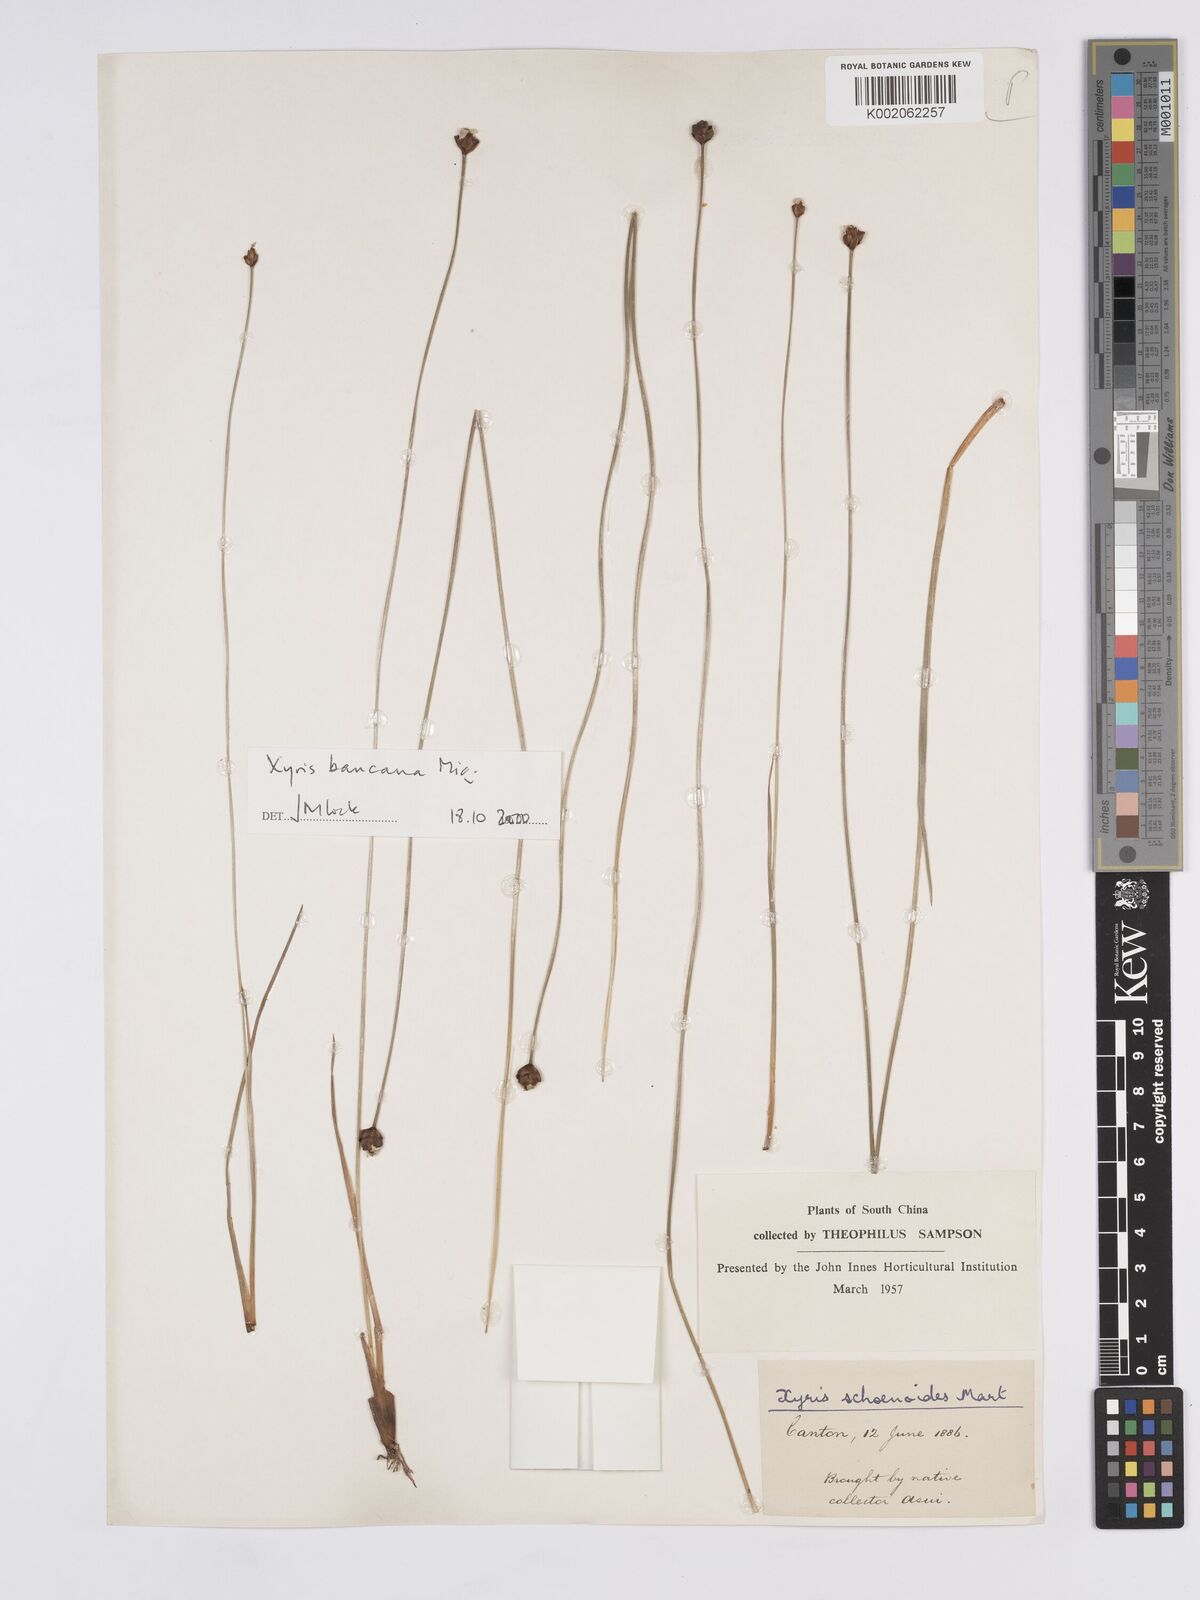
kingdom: Plantae
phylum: Tracheophyta
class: Liliopsida
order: Poales
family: Xyridaceae
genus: Xyris
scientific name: Xyris bancana
